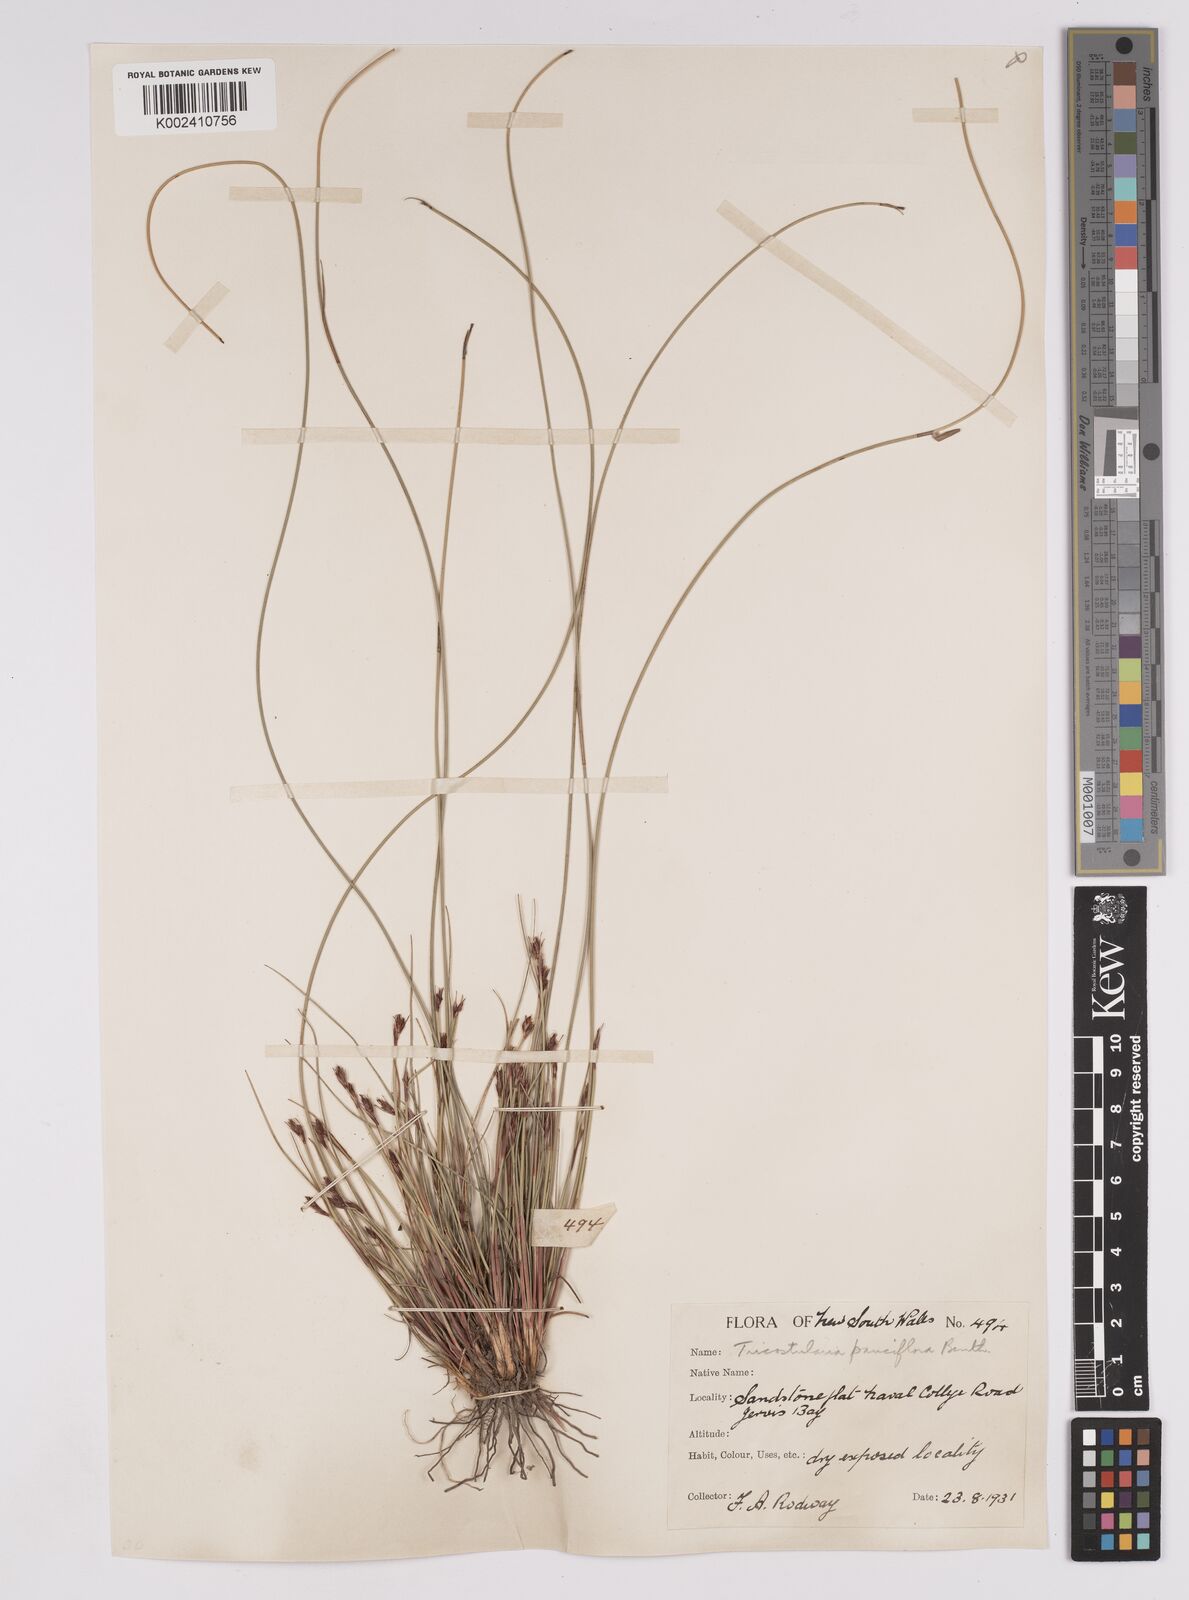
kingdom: Plantae
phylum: Tracheophyta
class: Liliopsida
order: Poales
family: Cyperaceae
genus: Tricostularia
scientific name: Tricostularia pauciflora
